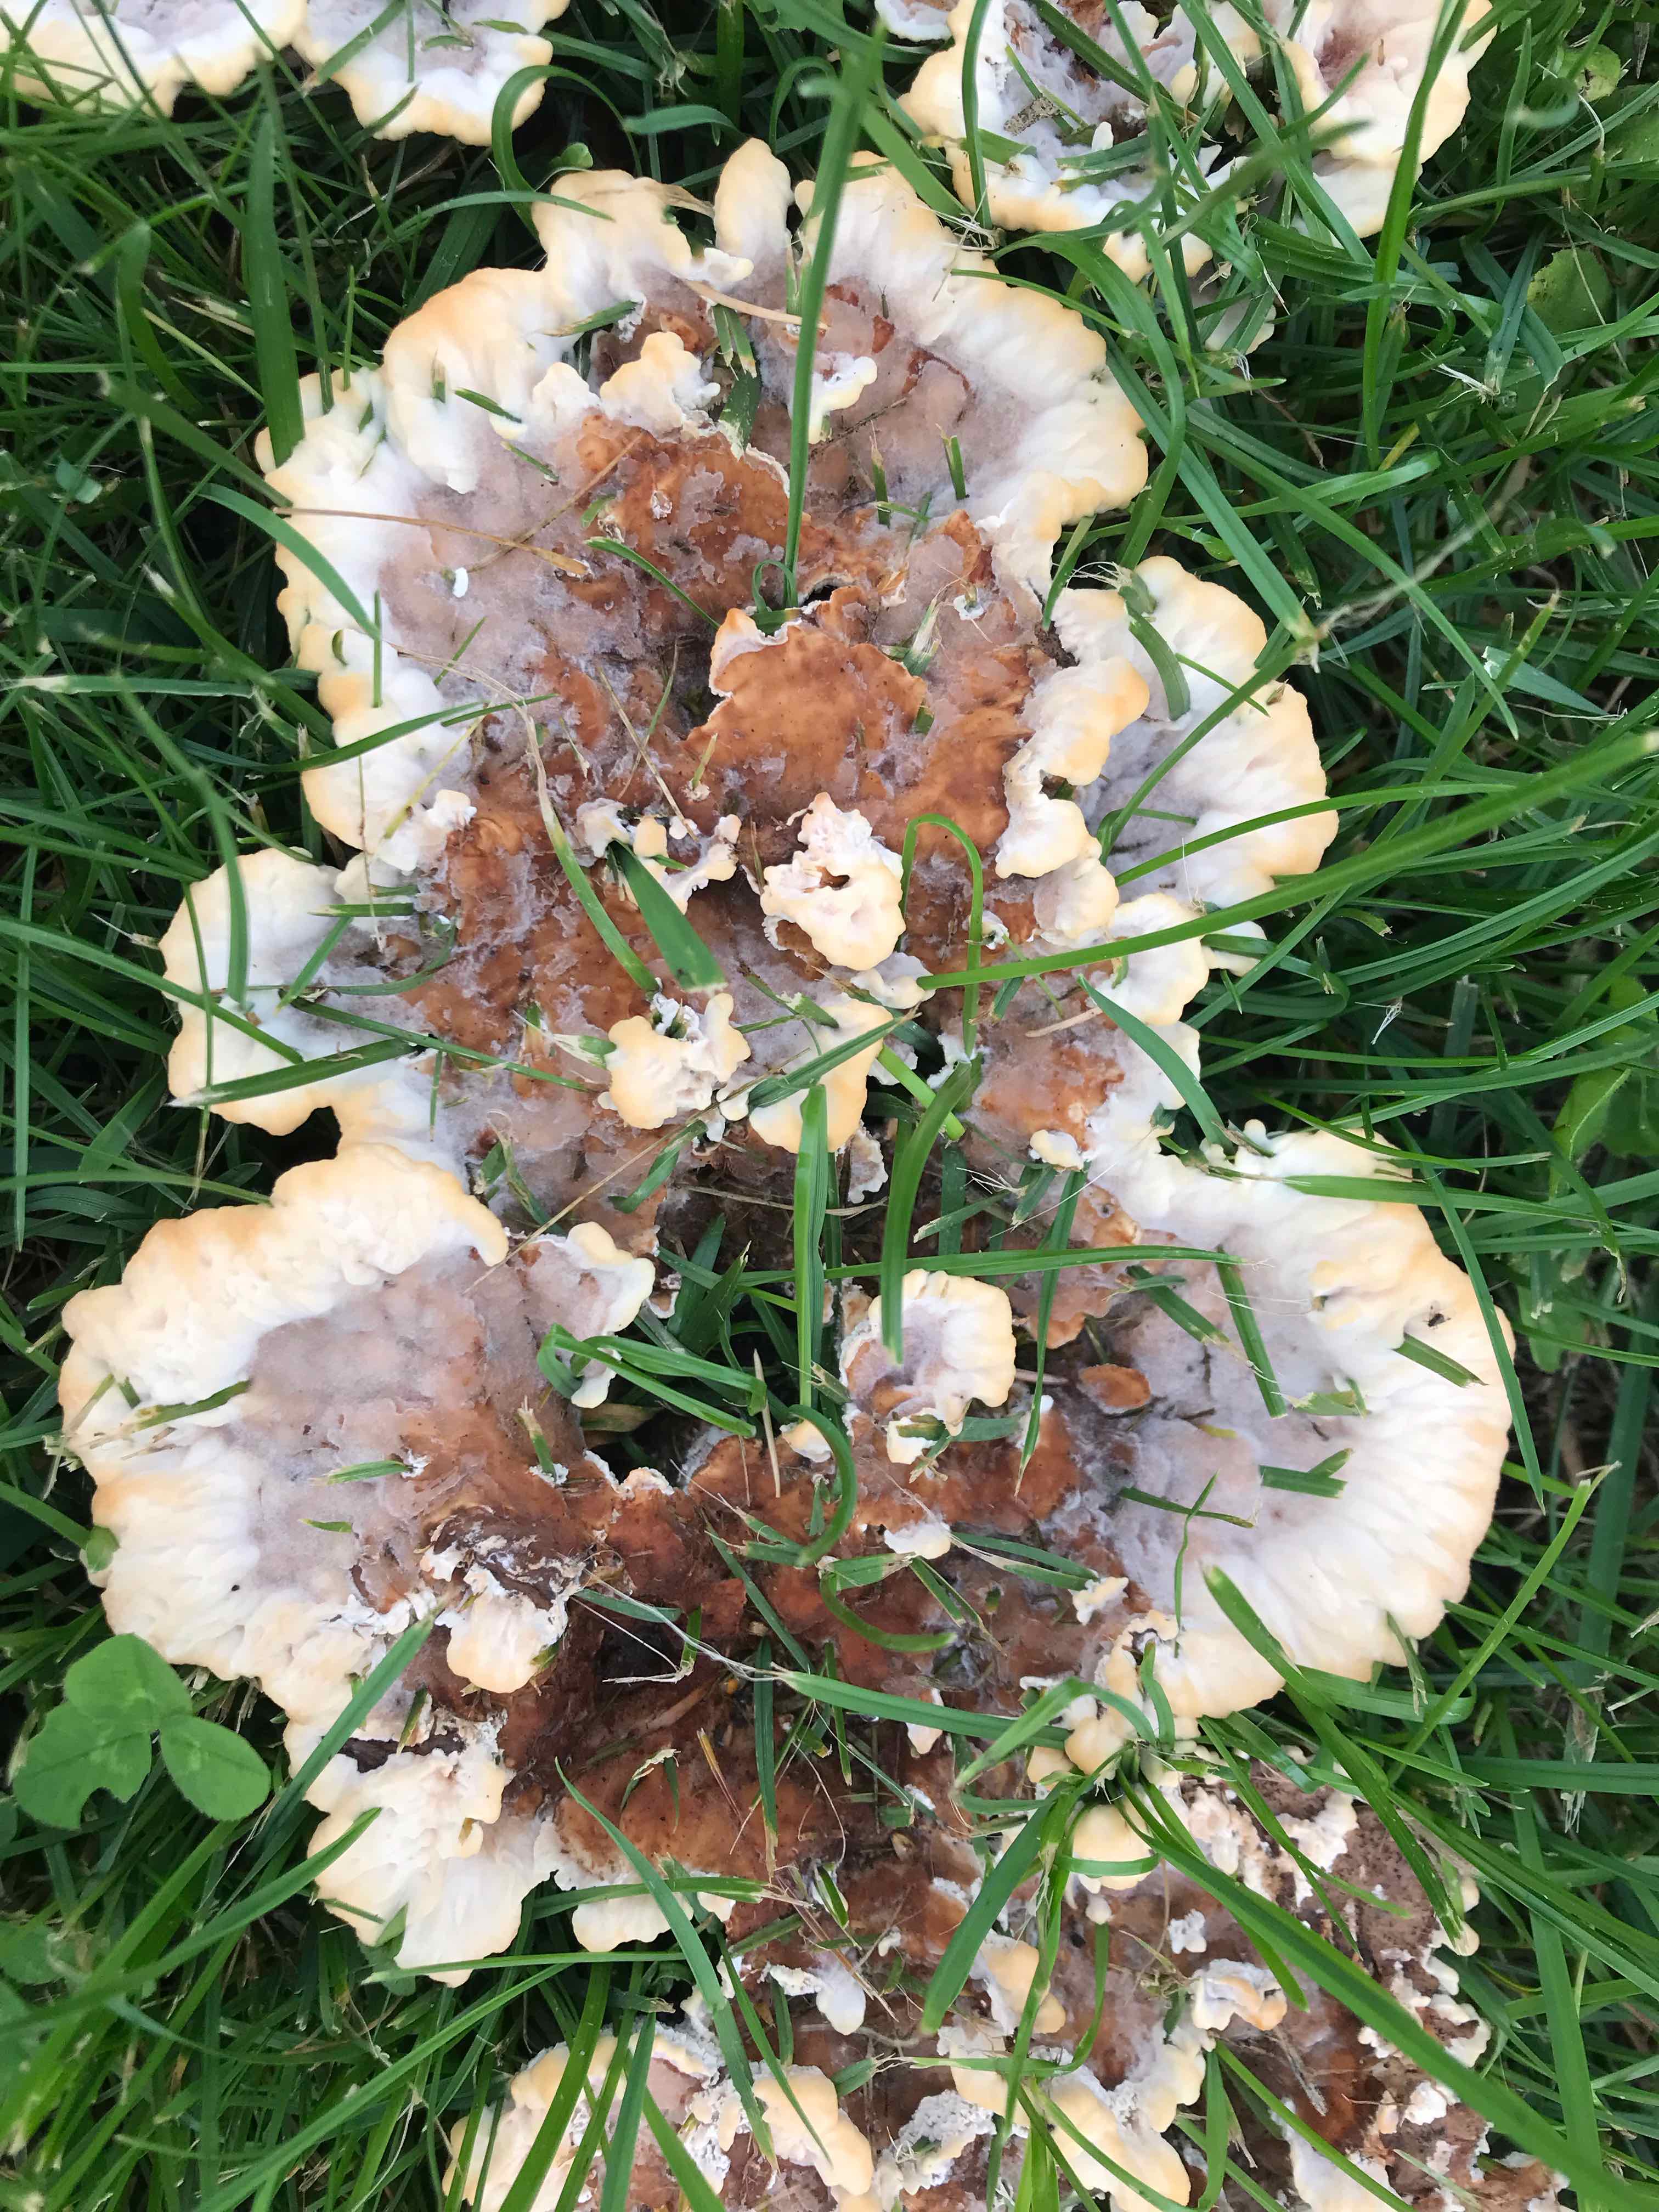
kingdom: Fungi
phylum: Basidiomycota
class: Agaricomycetes
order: Polyporales
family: Podoscyphaceae
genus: Abortiporus
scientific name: Abortiporus biennis
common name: rødmende pjalteporesvamp
